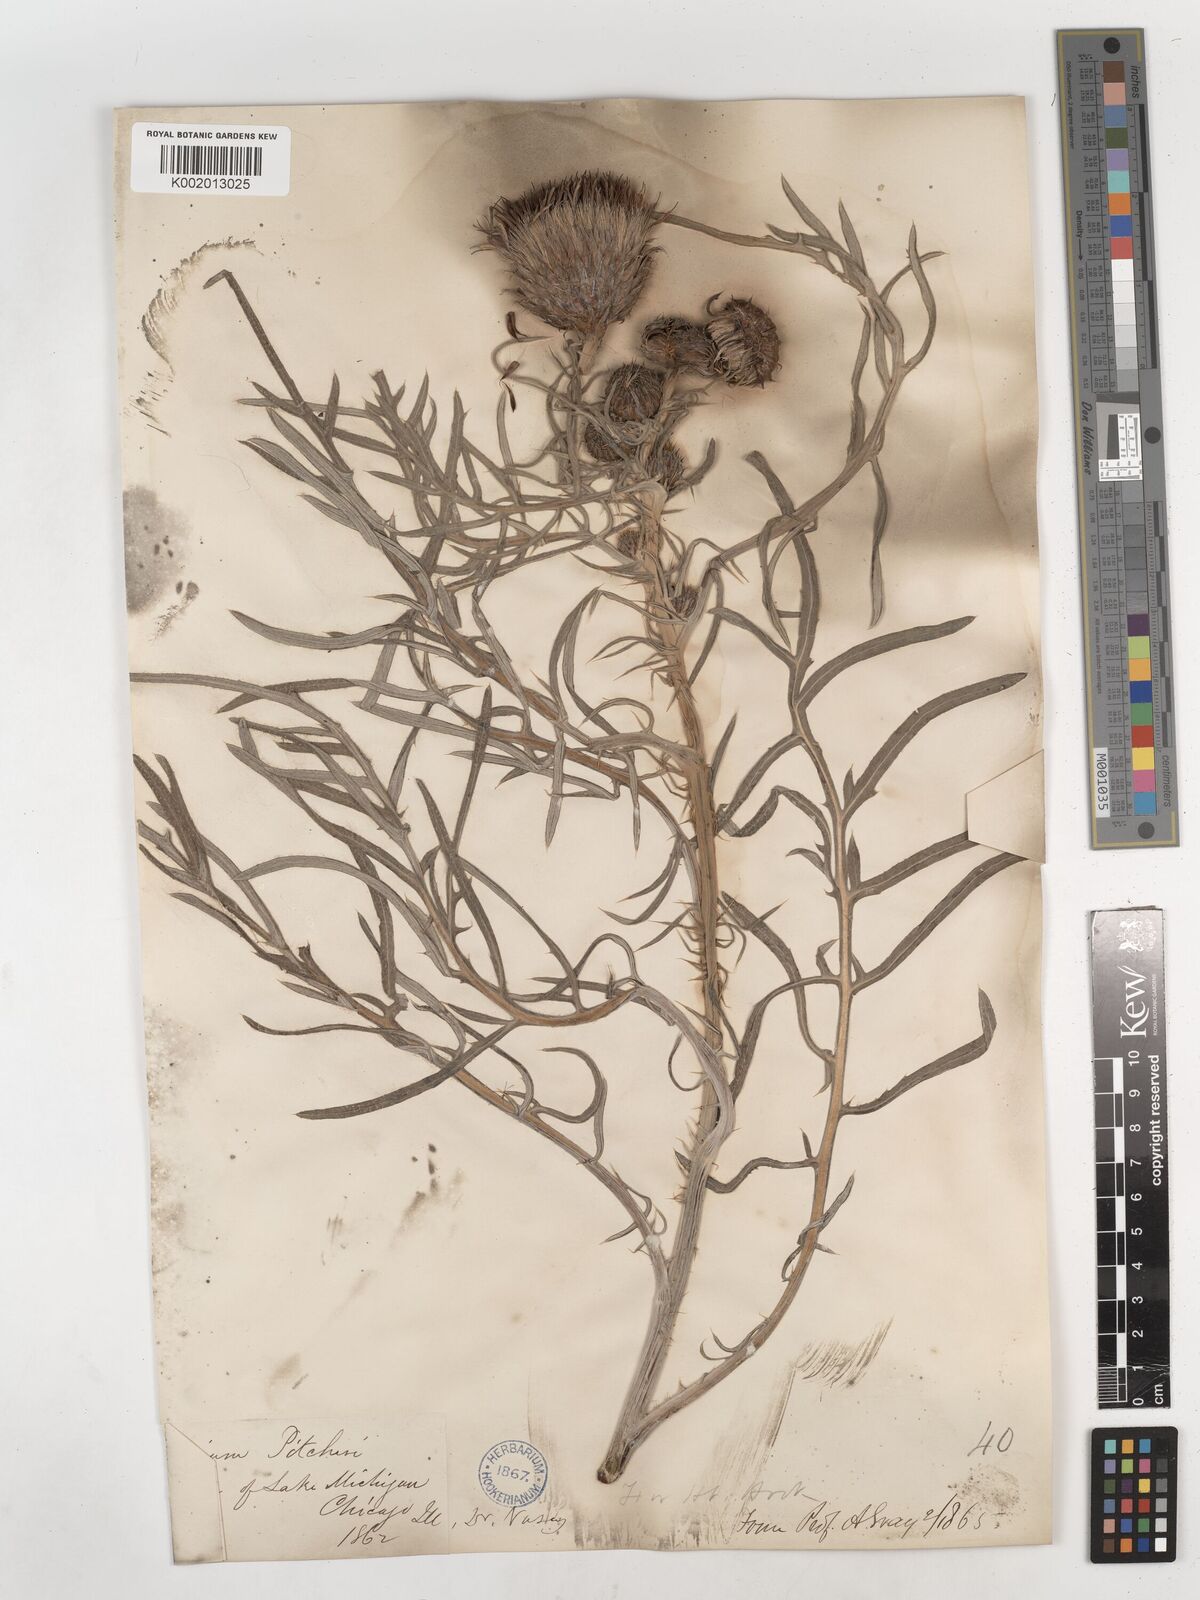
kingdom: Plantae
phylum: Tracheophyta
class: Magnoliopsida
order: Asterales
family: Asteraceae
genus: Cirsium
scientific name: Cirsium pitcheri
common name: Dune thistle
